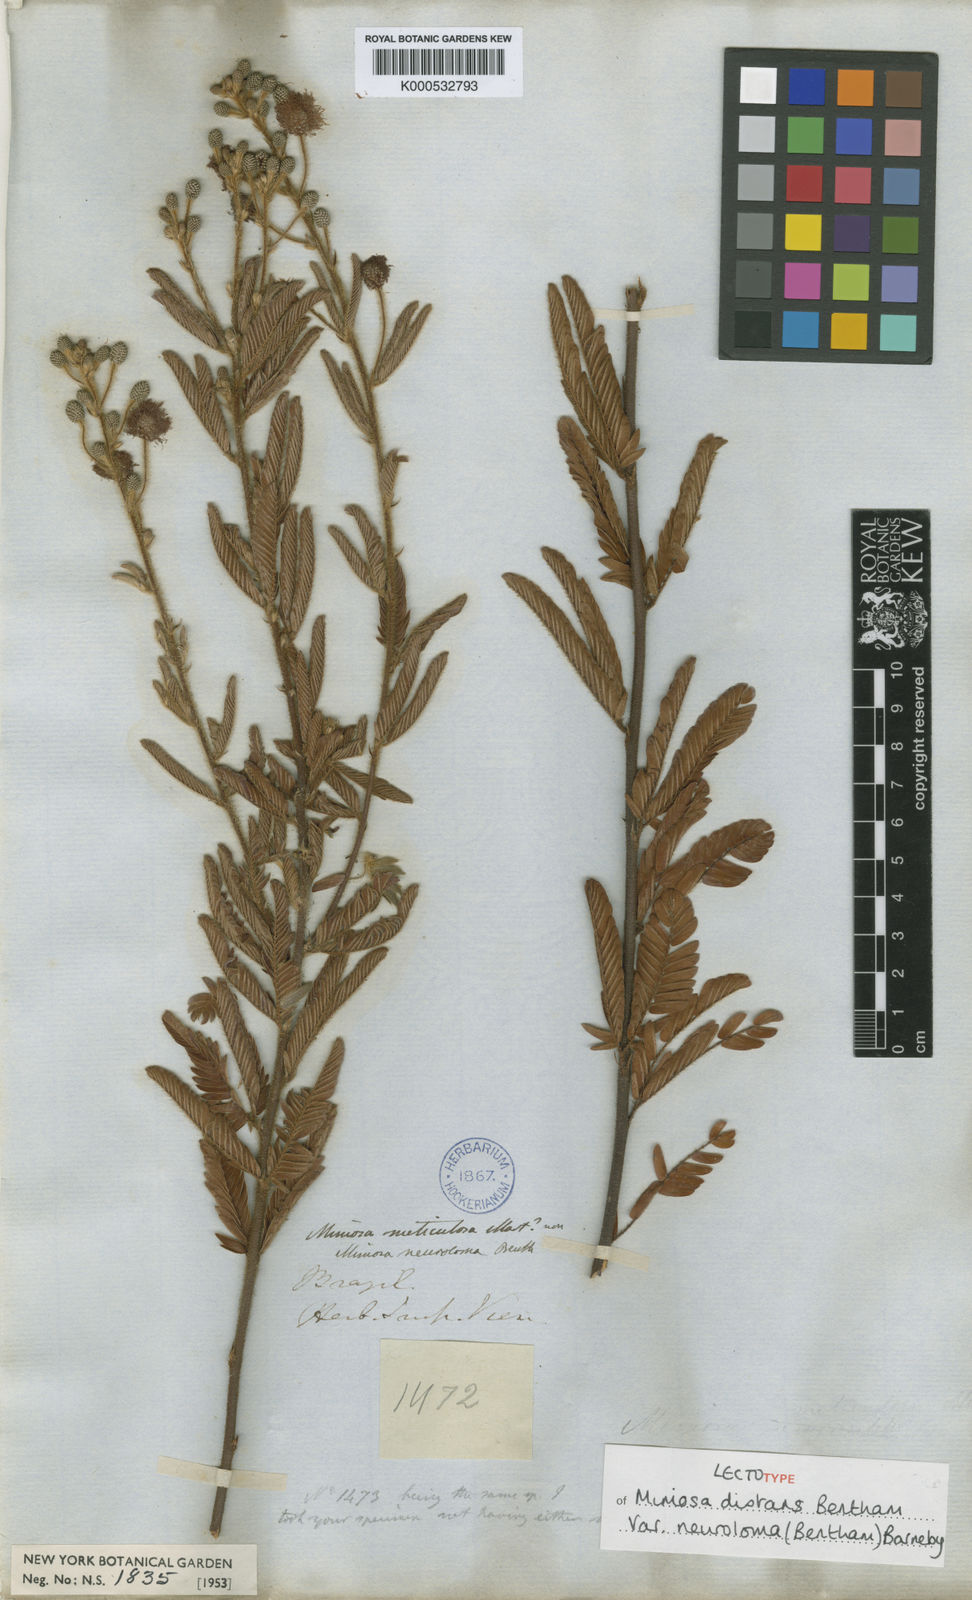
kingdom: Plantae
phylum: Tracheophyta
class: Magnoliopsida
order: Fabales
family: Fabaceae
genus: Mimosa
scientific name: Mimosa distans
